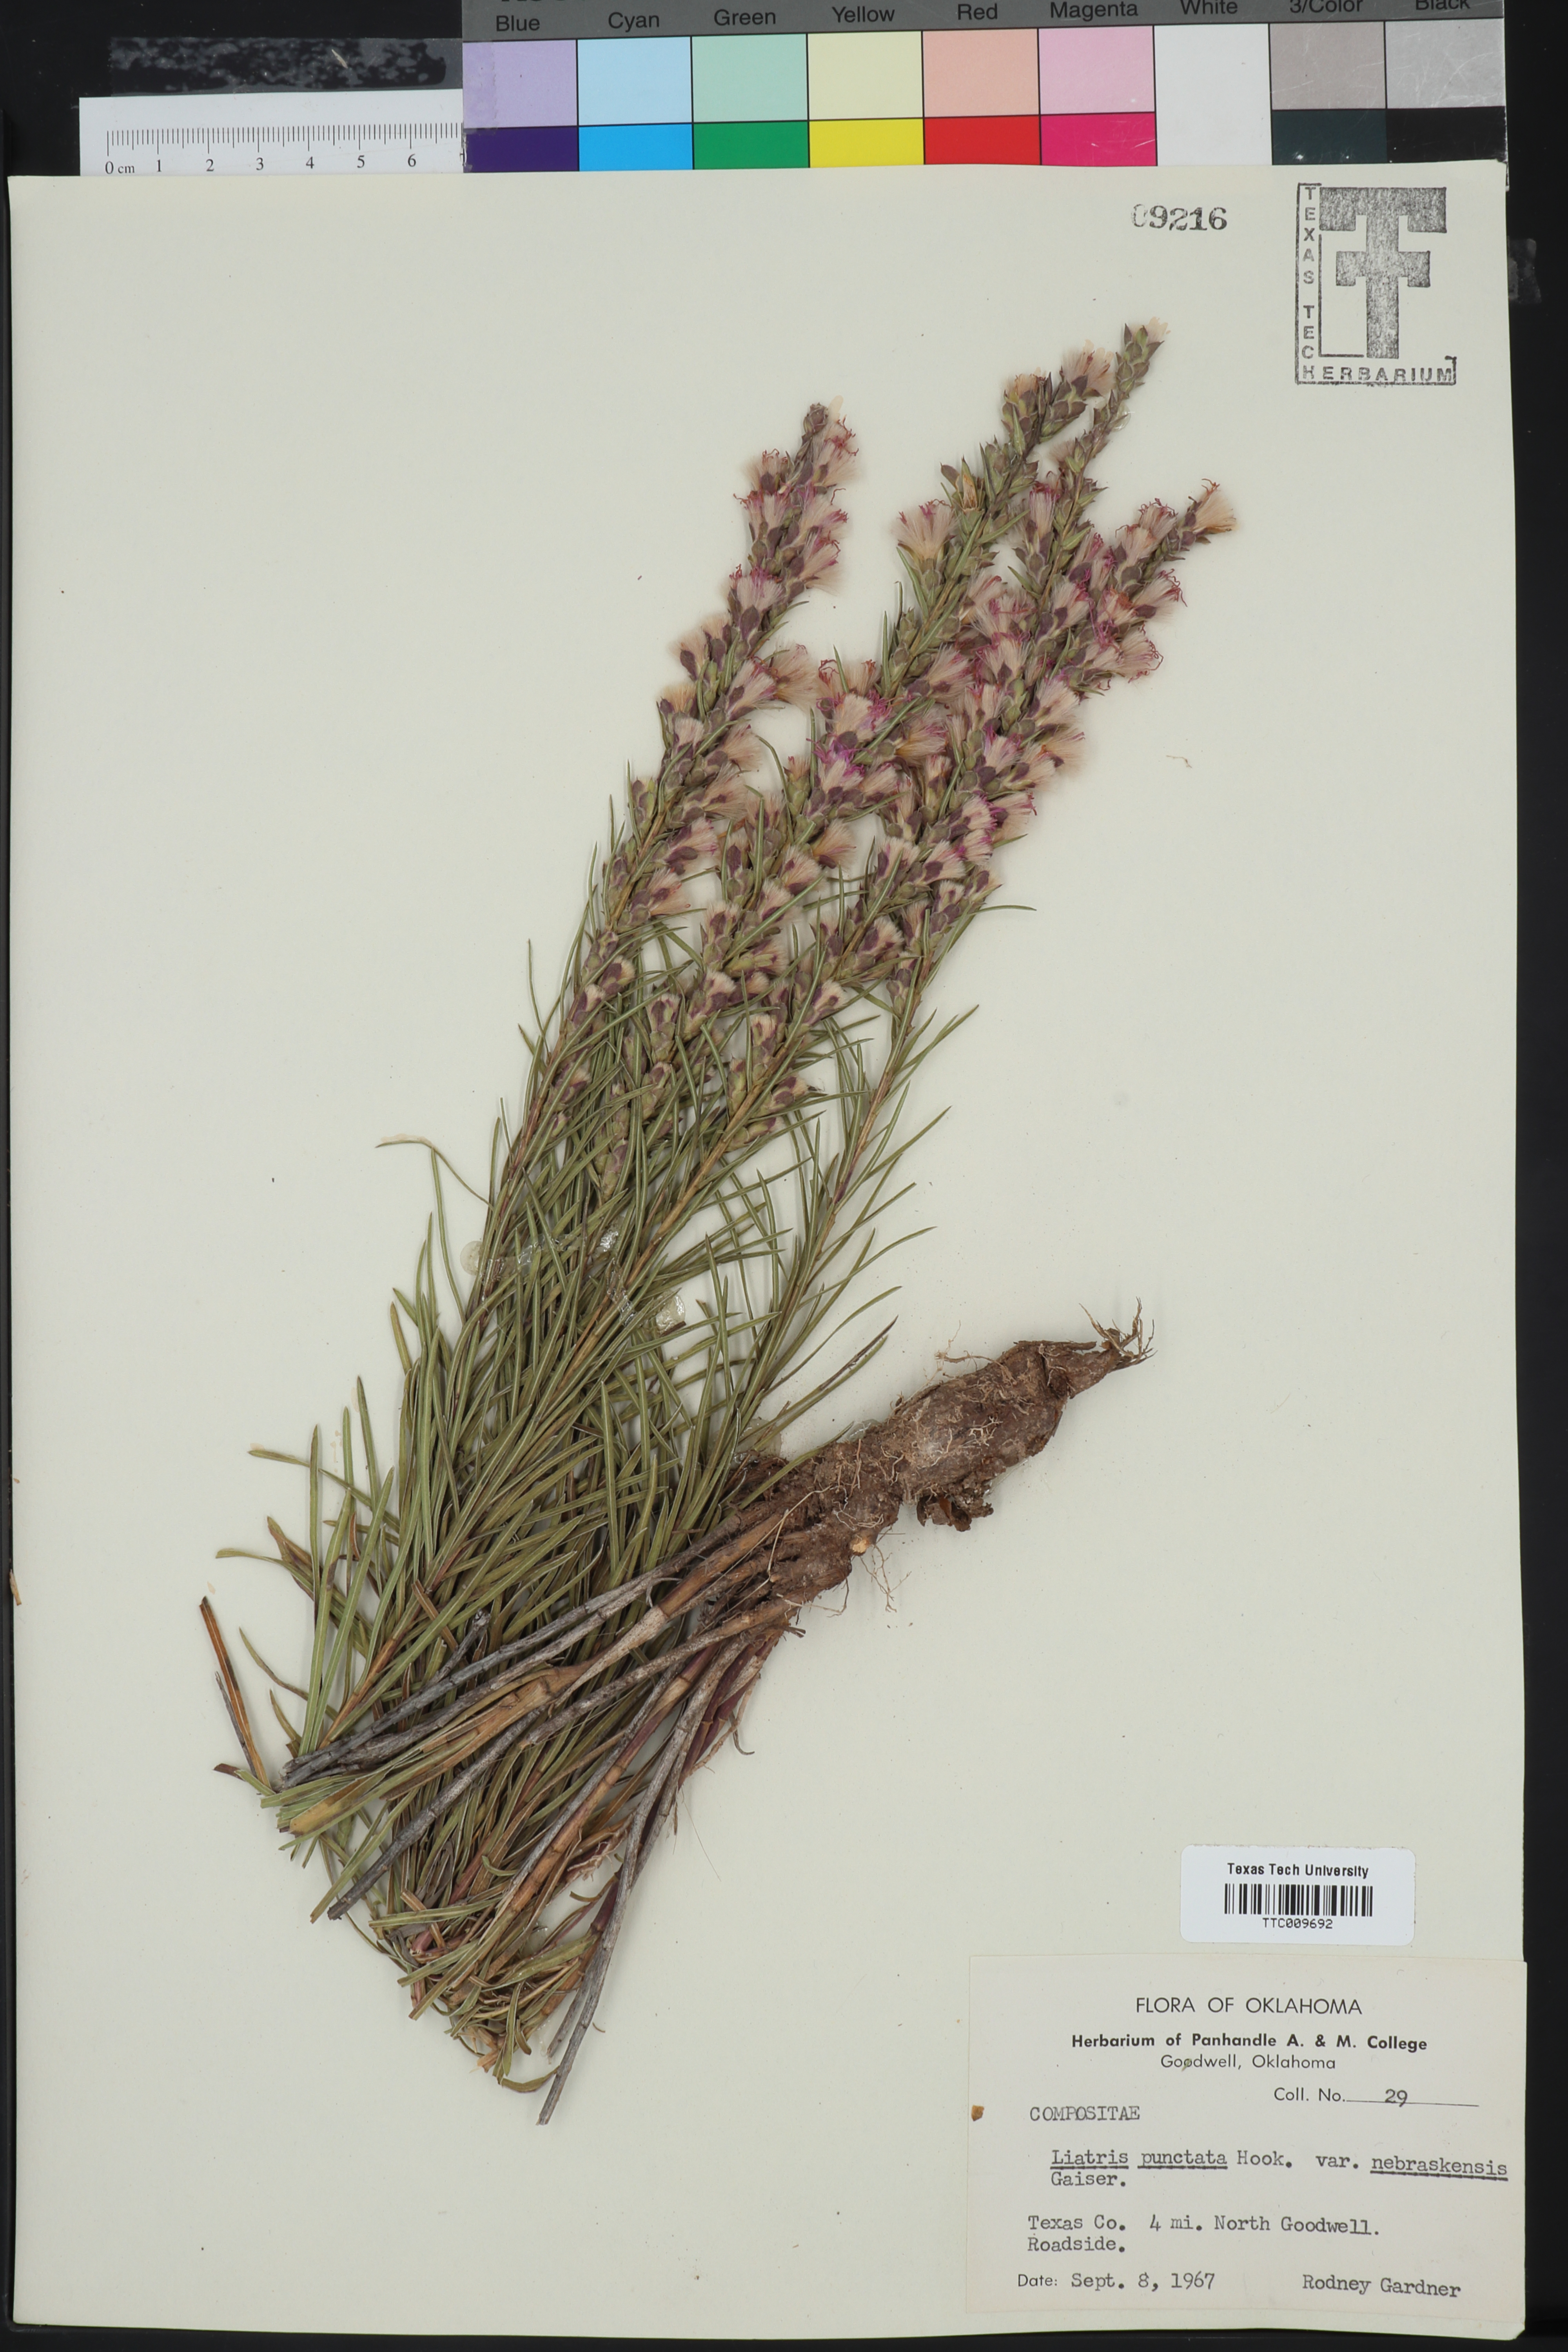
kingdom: Plantae
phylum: Tracheophyta
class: Magnoliopsida
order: Asterales
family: Asteraceae
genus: Liatris
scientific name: Liatris punctata
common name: Dotted gayfeather
